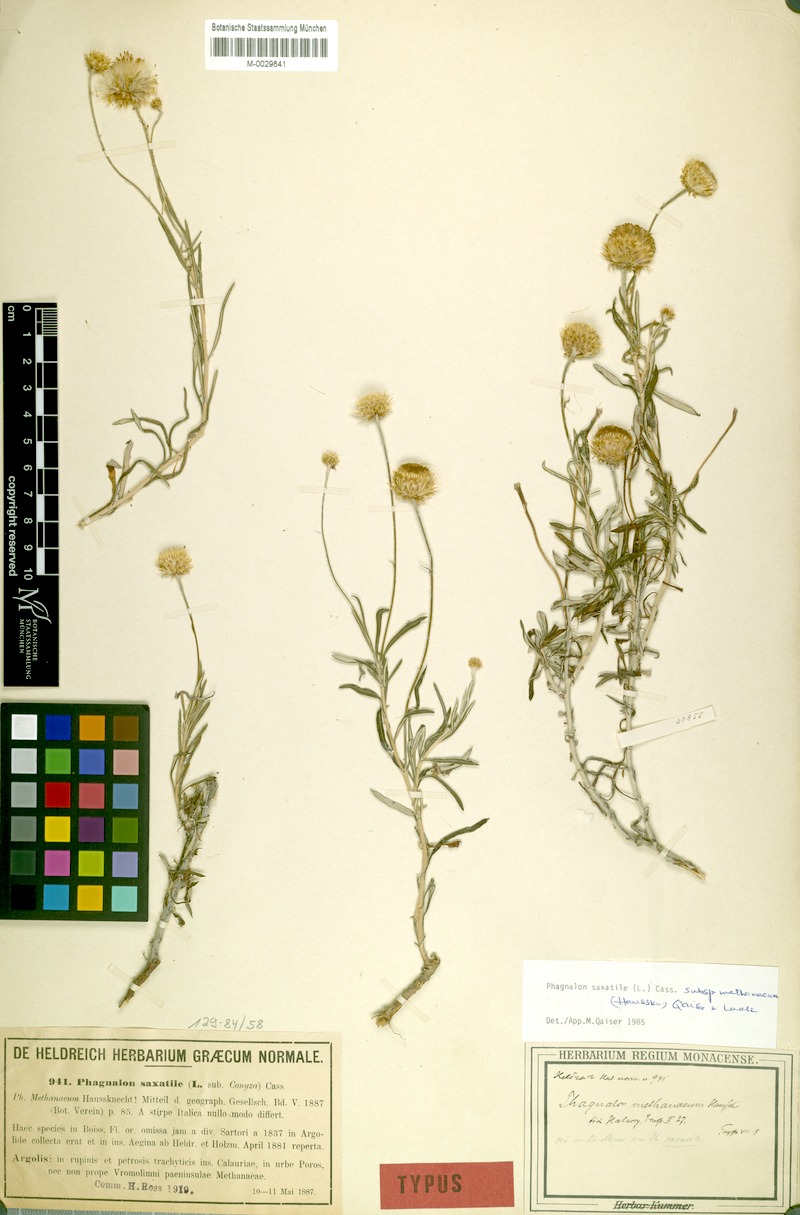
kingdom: Plantae
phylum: Tracheophyta
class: Magnoliopsida
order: Asterales
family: Asteraceae
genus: Phagnalon
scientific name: Phagnalon saxatile
